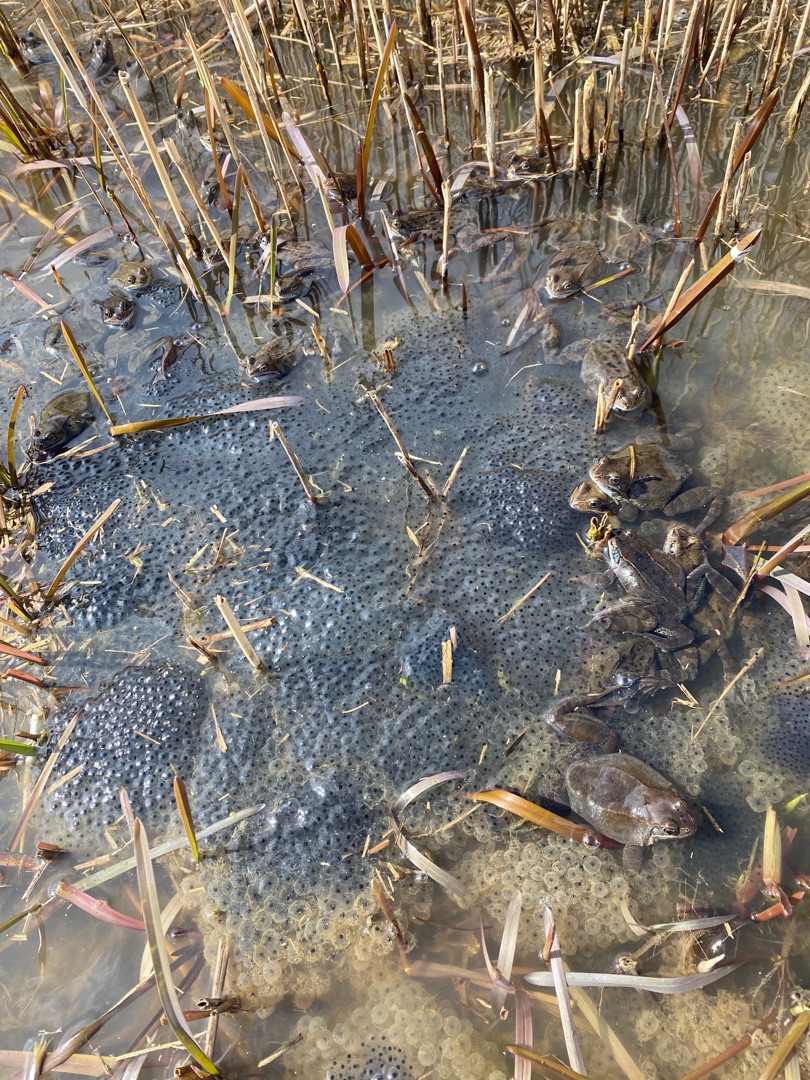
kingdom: Animalia
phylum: Chordata
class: Amphibia
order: Anura
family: Ranidae
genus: Rana
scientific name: Rana temporaria
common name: Butsnudet frø
